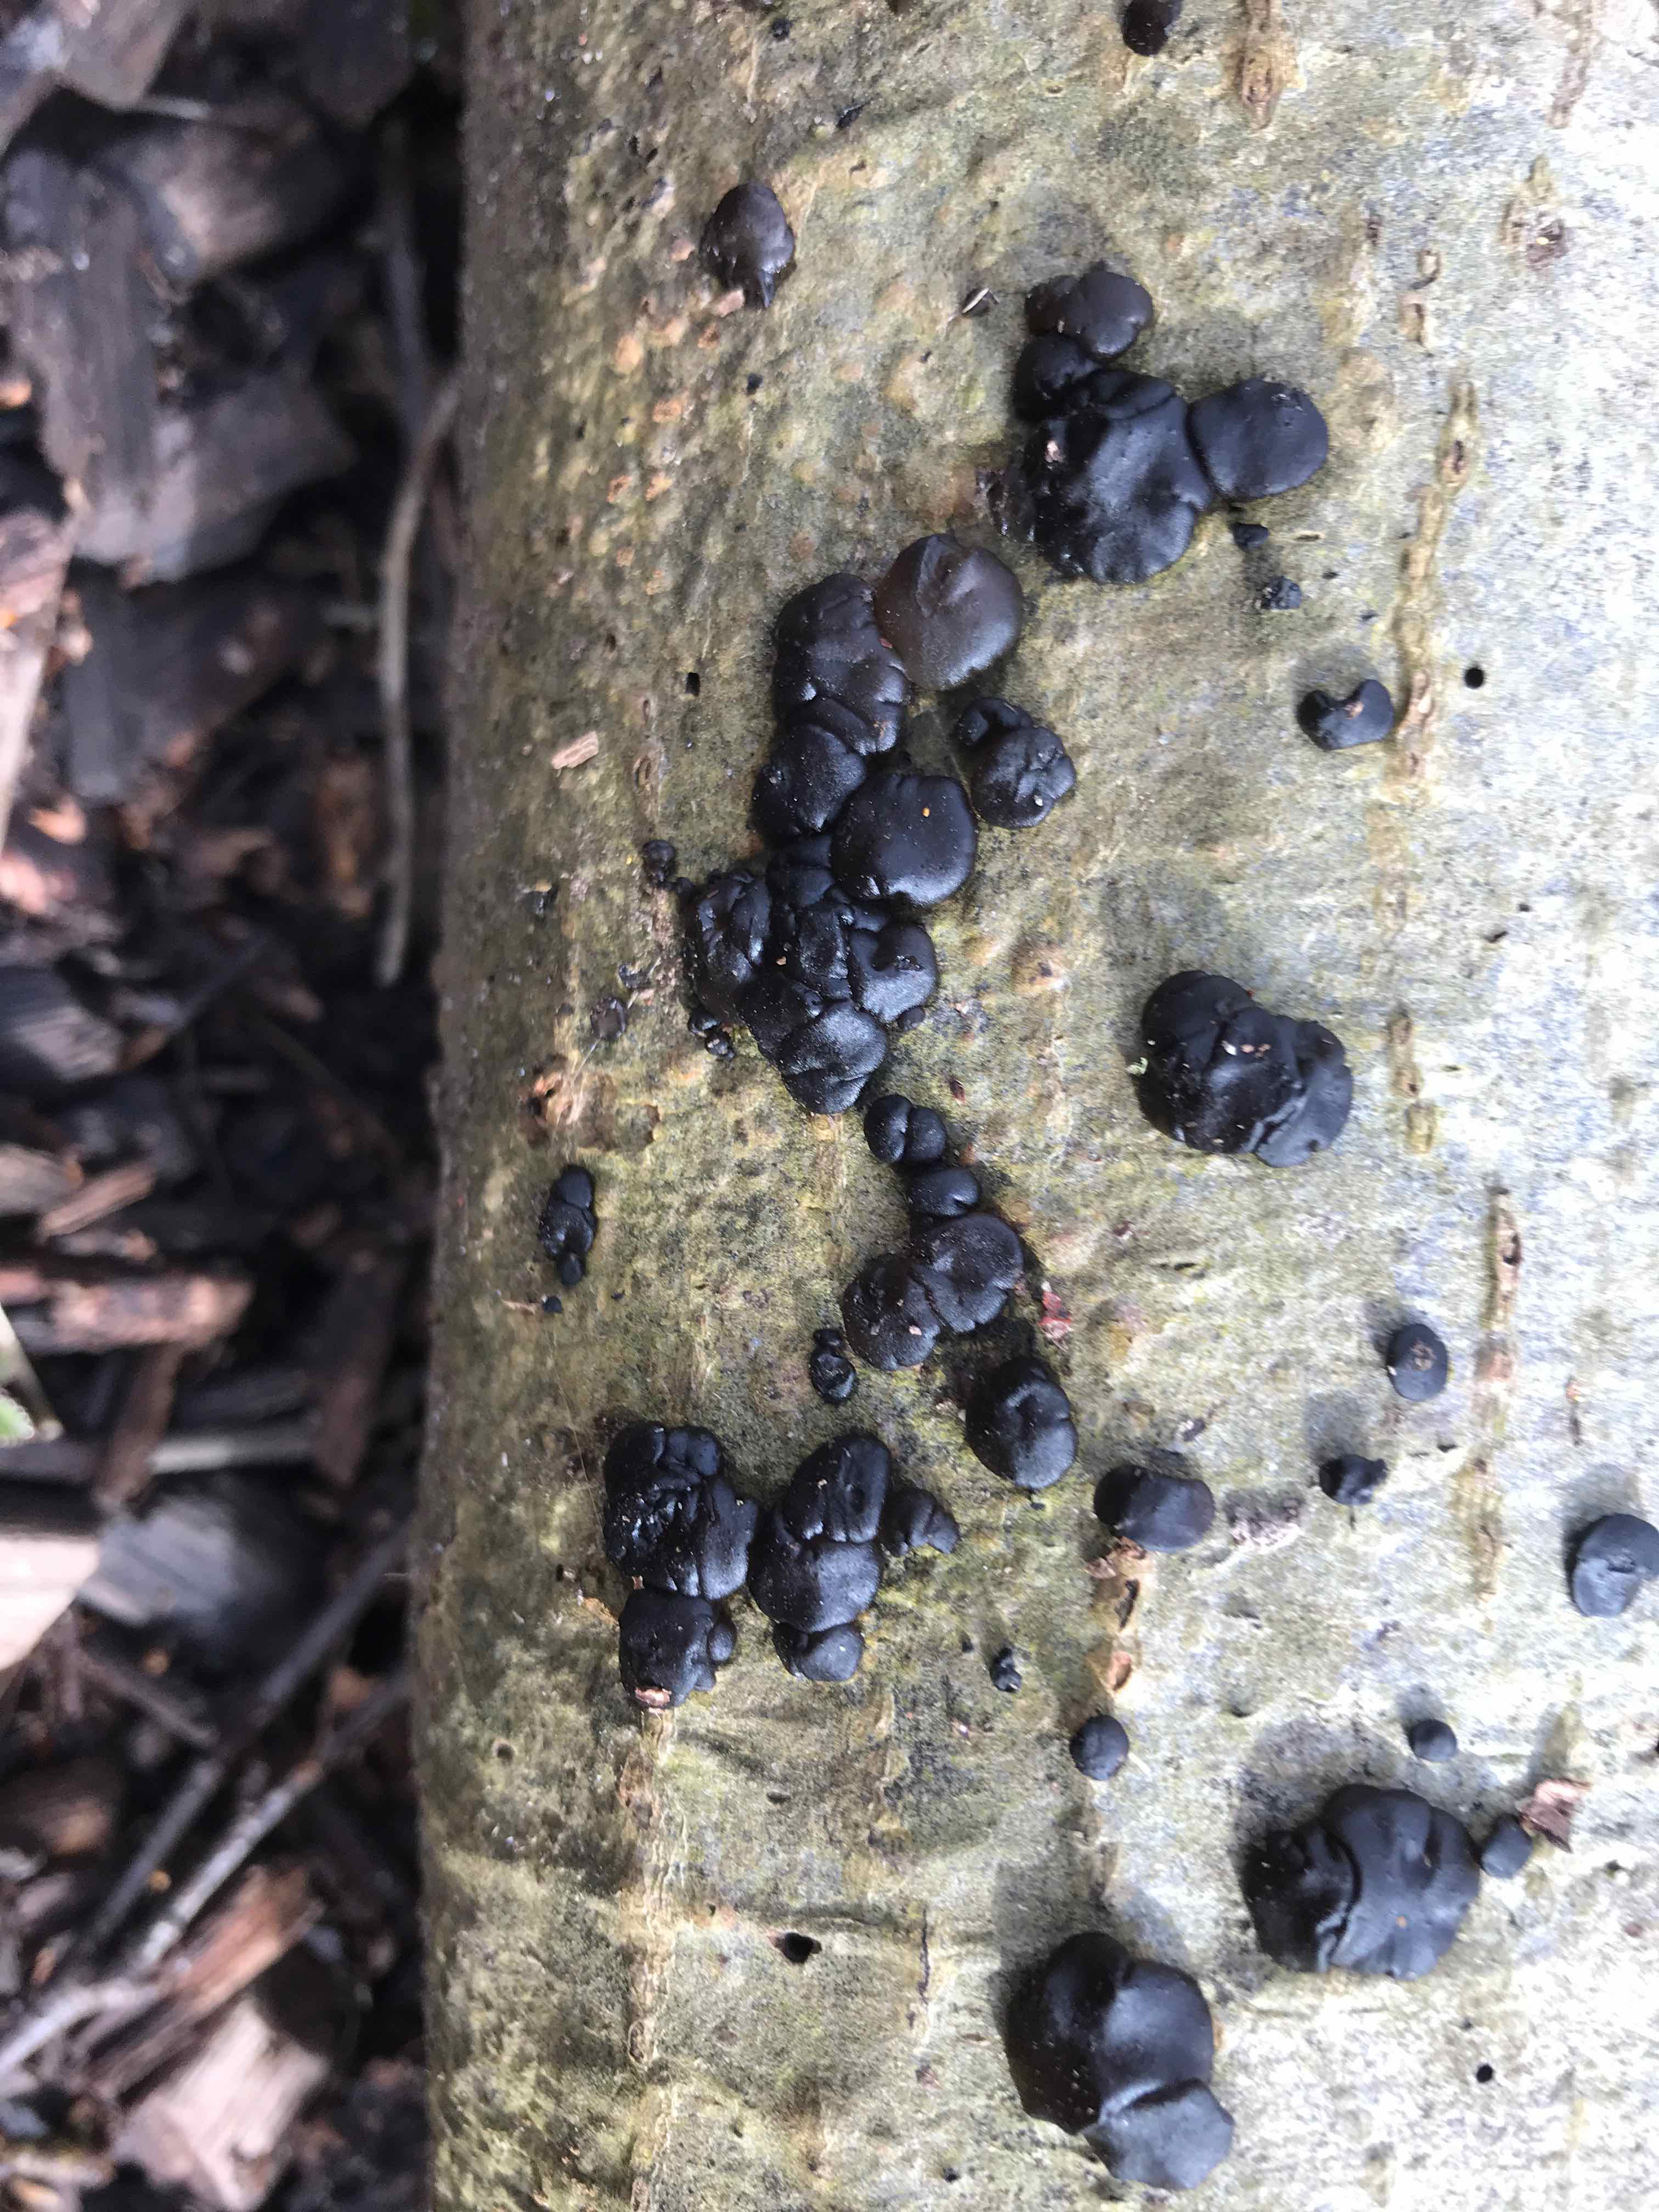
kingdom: Fungi
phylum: Basidiomycota
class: Agaricomycetes
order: Auriculariales
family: Auriculariaceae
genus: Exidia
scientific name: Exidia nigricans
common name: almindelig bævretop
